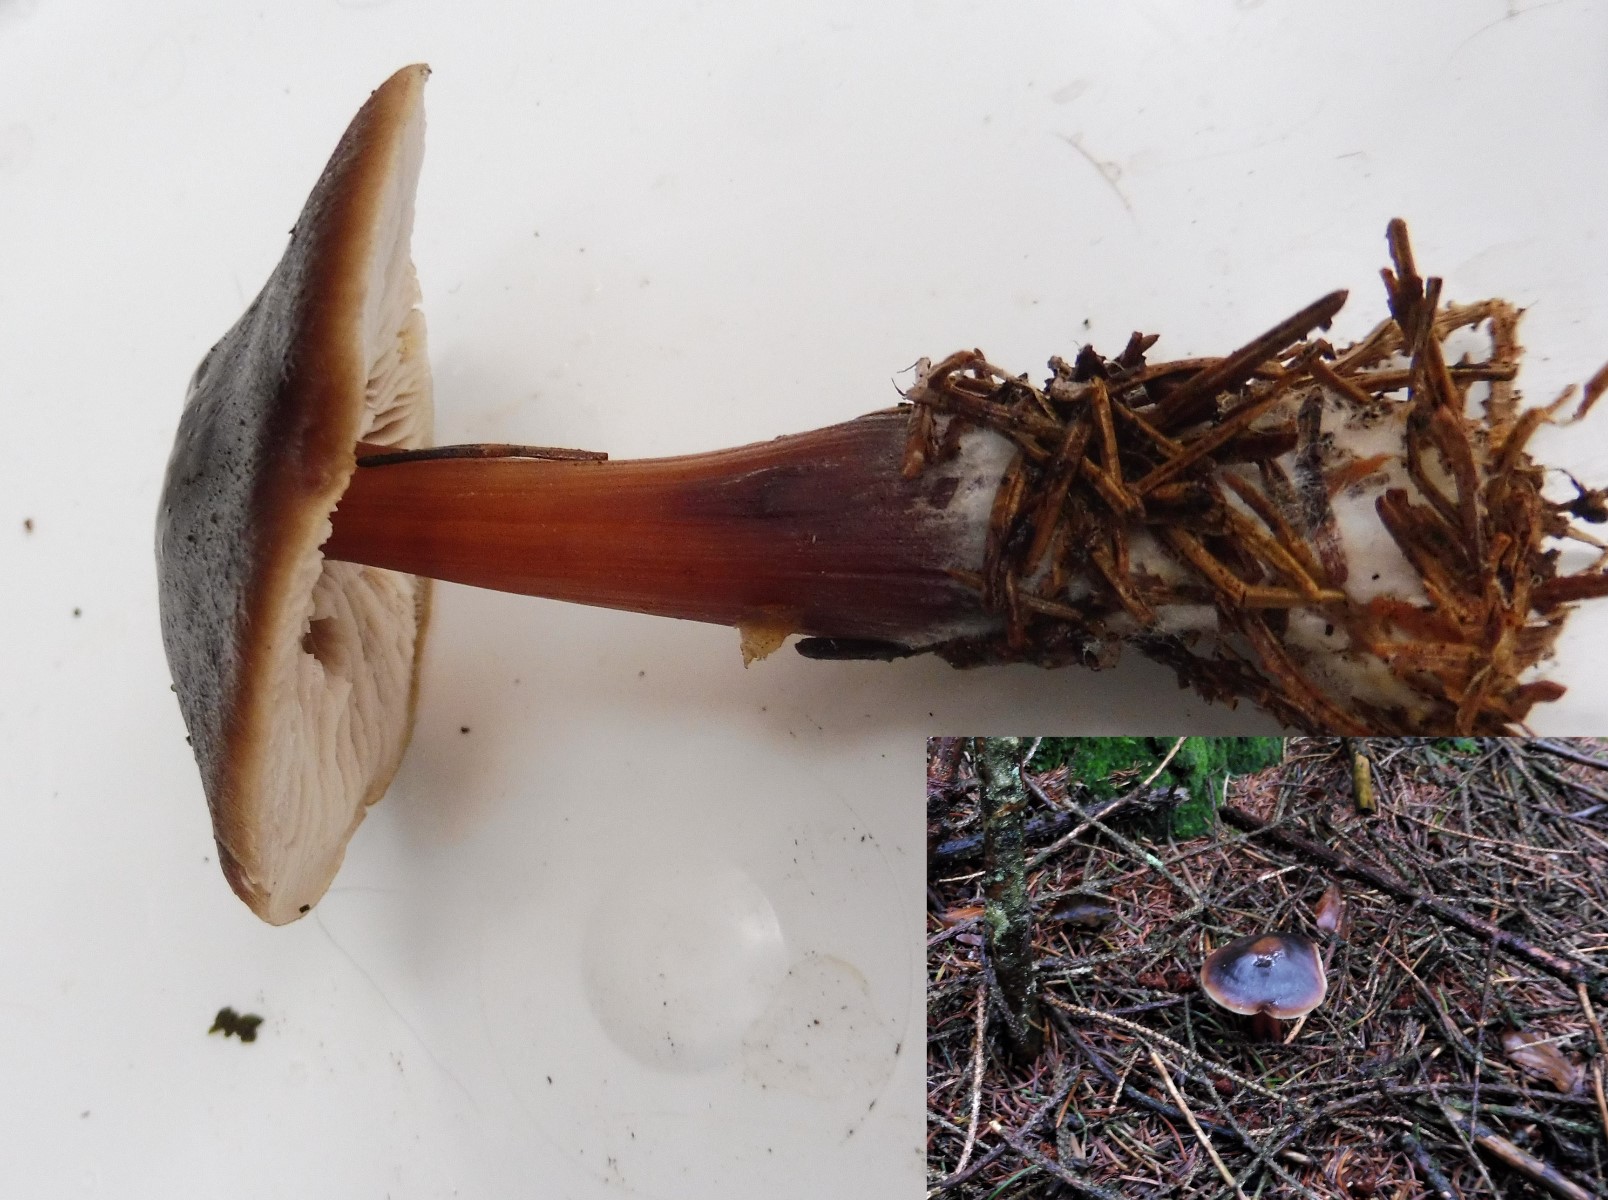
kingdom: Fungi
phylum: Basidiomycota
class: Agaricomycetes
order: Agaricales
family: Omphalotaceae
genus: Rhodocollybia
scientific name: Rhodocollybia butyracea
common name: keglestokket fladhat
